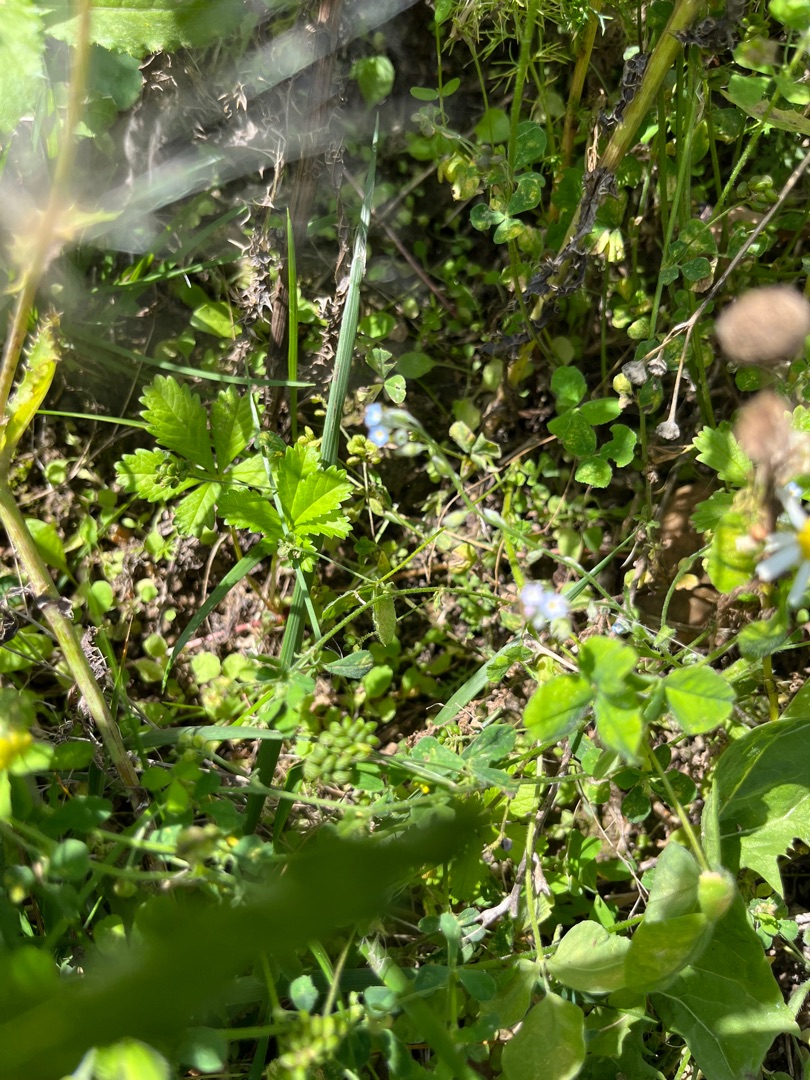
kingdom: Plantae
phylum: Tracheophyta
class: Magnoliopsida
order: Boraginales
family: Boraginaceae
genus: Myosotis
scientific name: Myosotis arvensis
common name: Mark-forglemmigej
